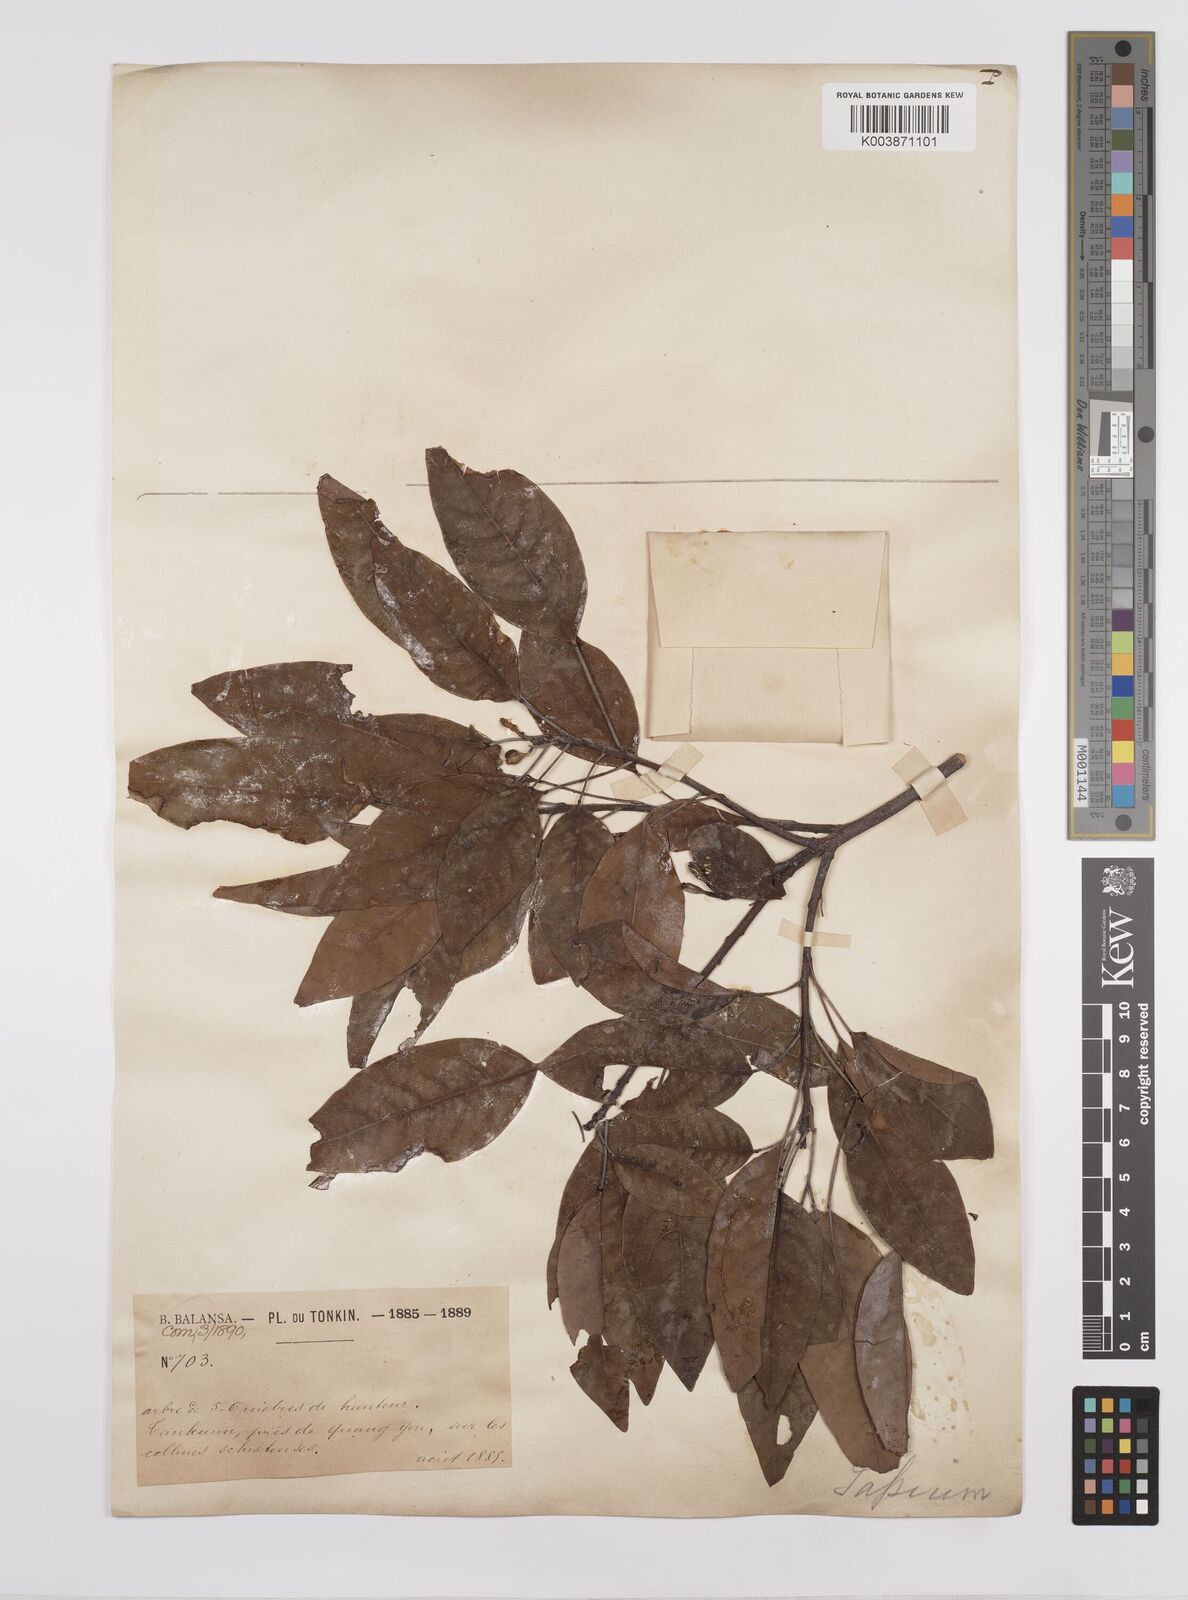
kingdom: Plantae
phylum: Tracheophyta
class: Magnoliopsida
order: Malpighiales
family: Euphorbiaceae
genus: Triadica
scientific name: Triadica cochinchinensis
